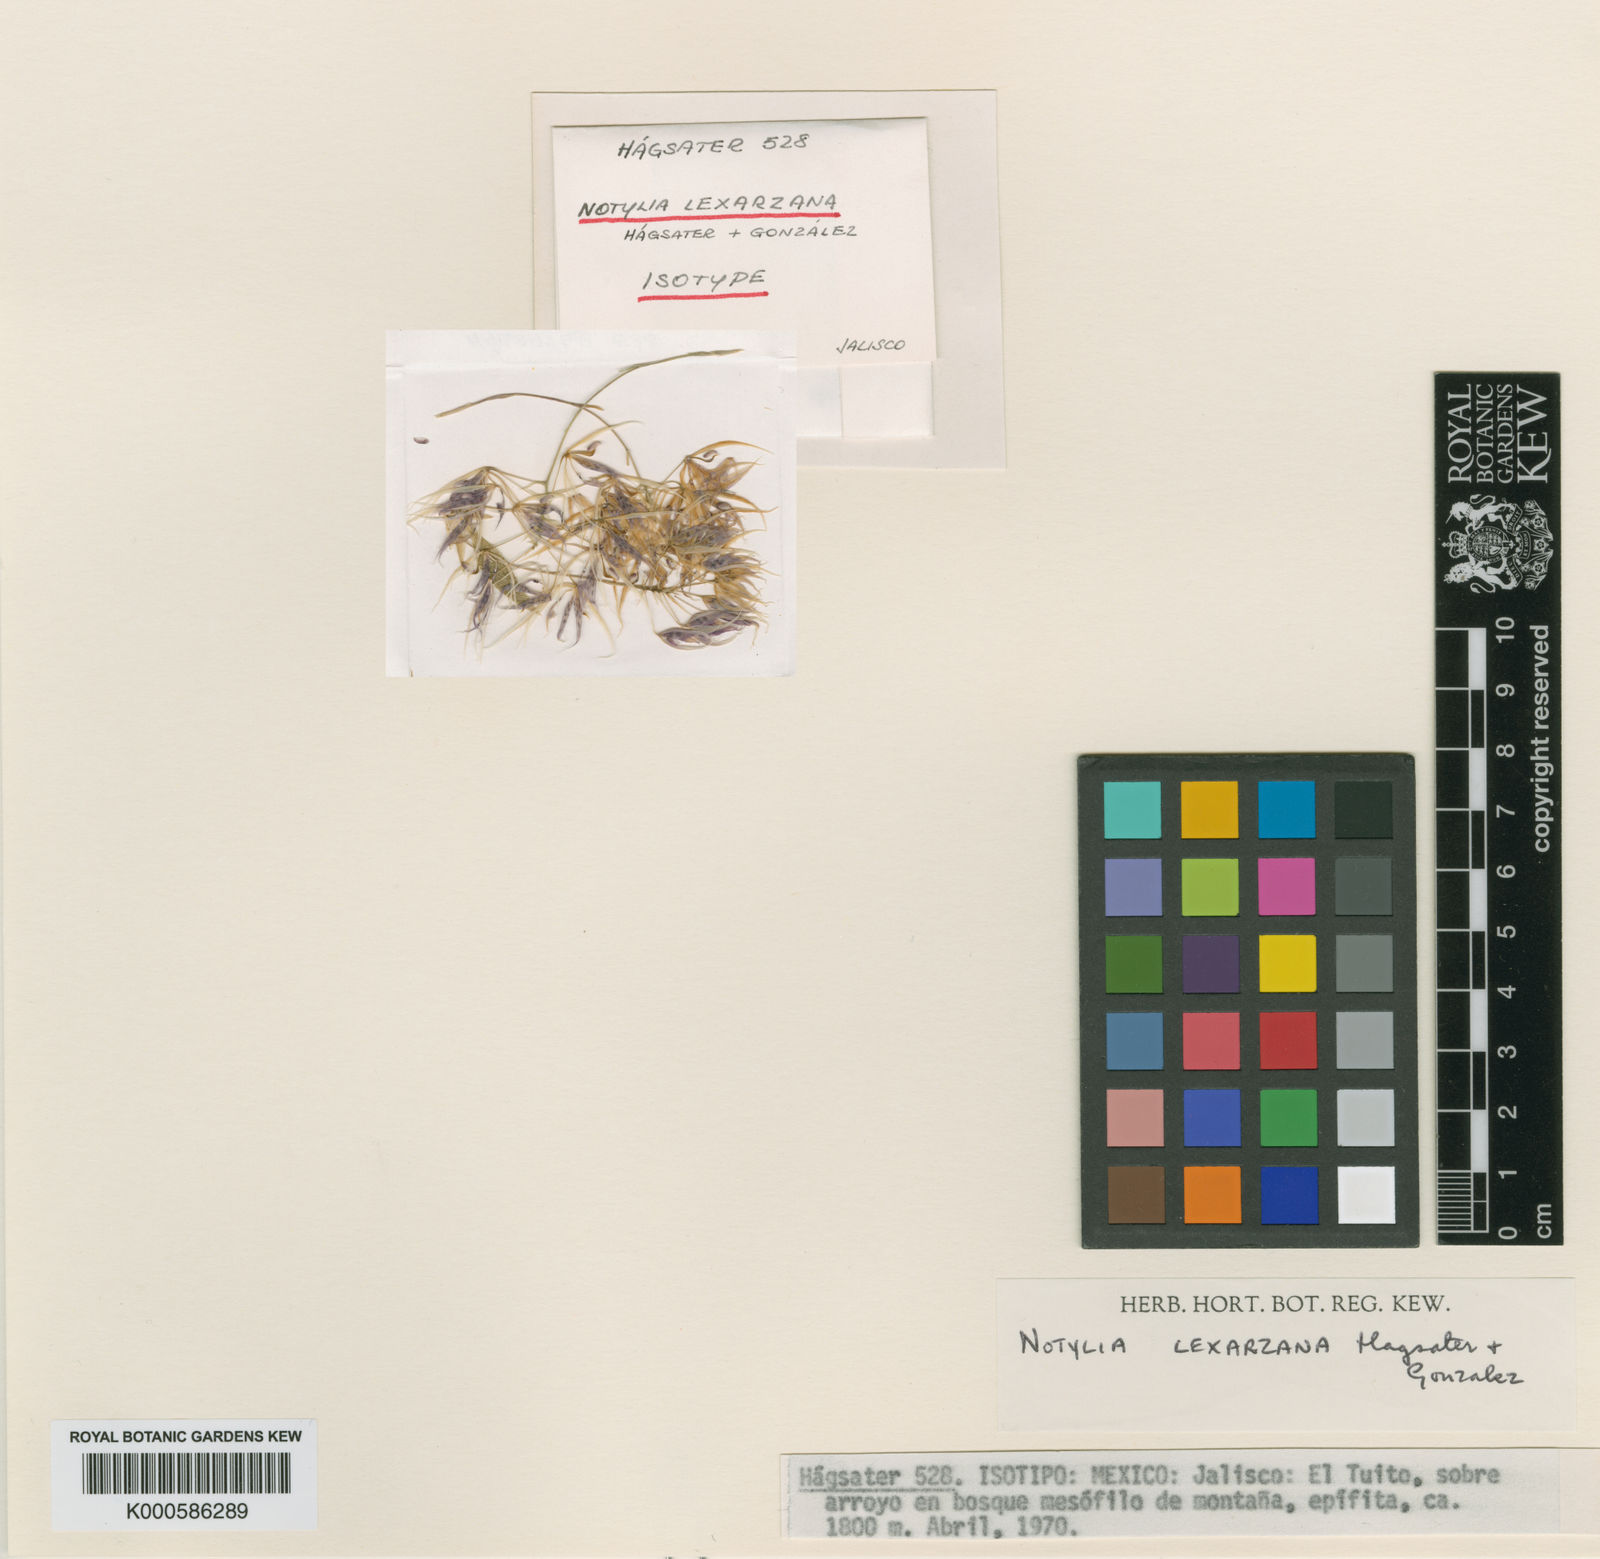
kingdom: Plantae
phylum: Tracheophyta
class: Liliopsida
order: Asparagales
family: Orchidaceae
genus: Notylia
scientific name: Notylia
